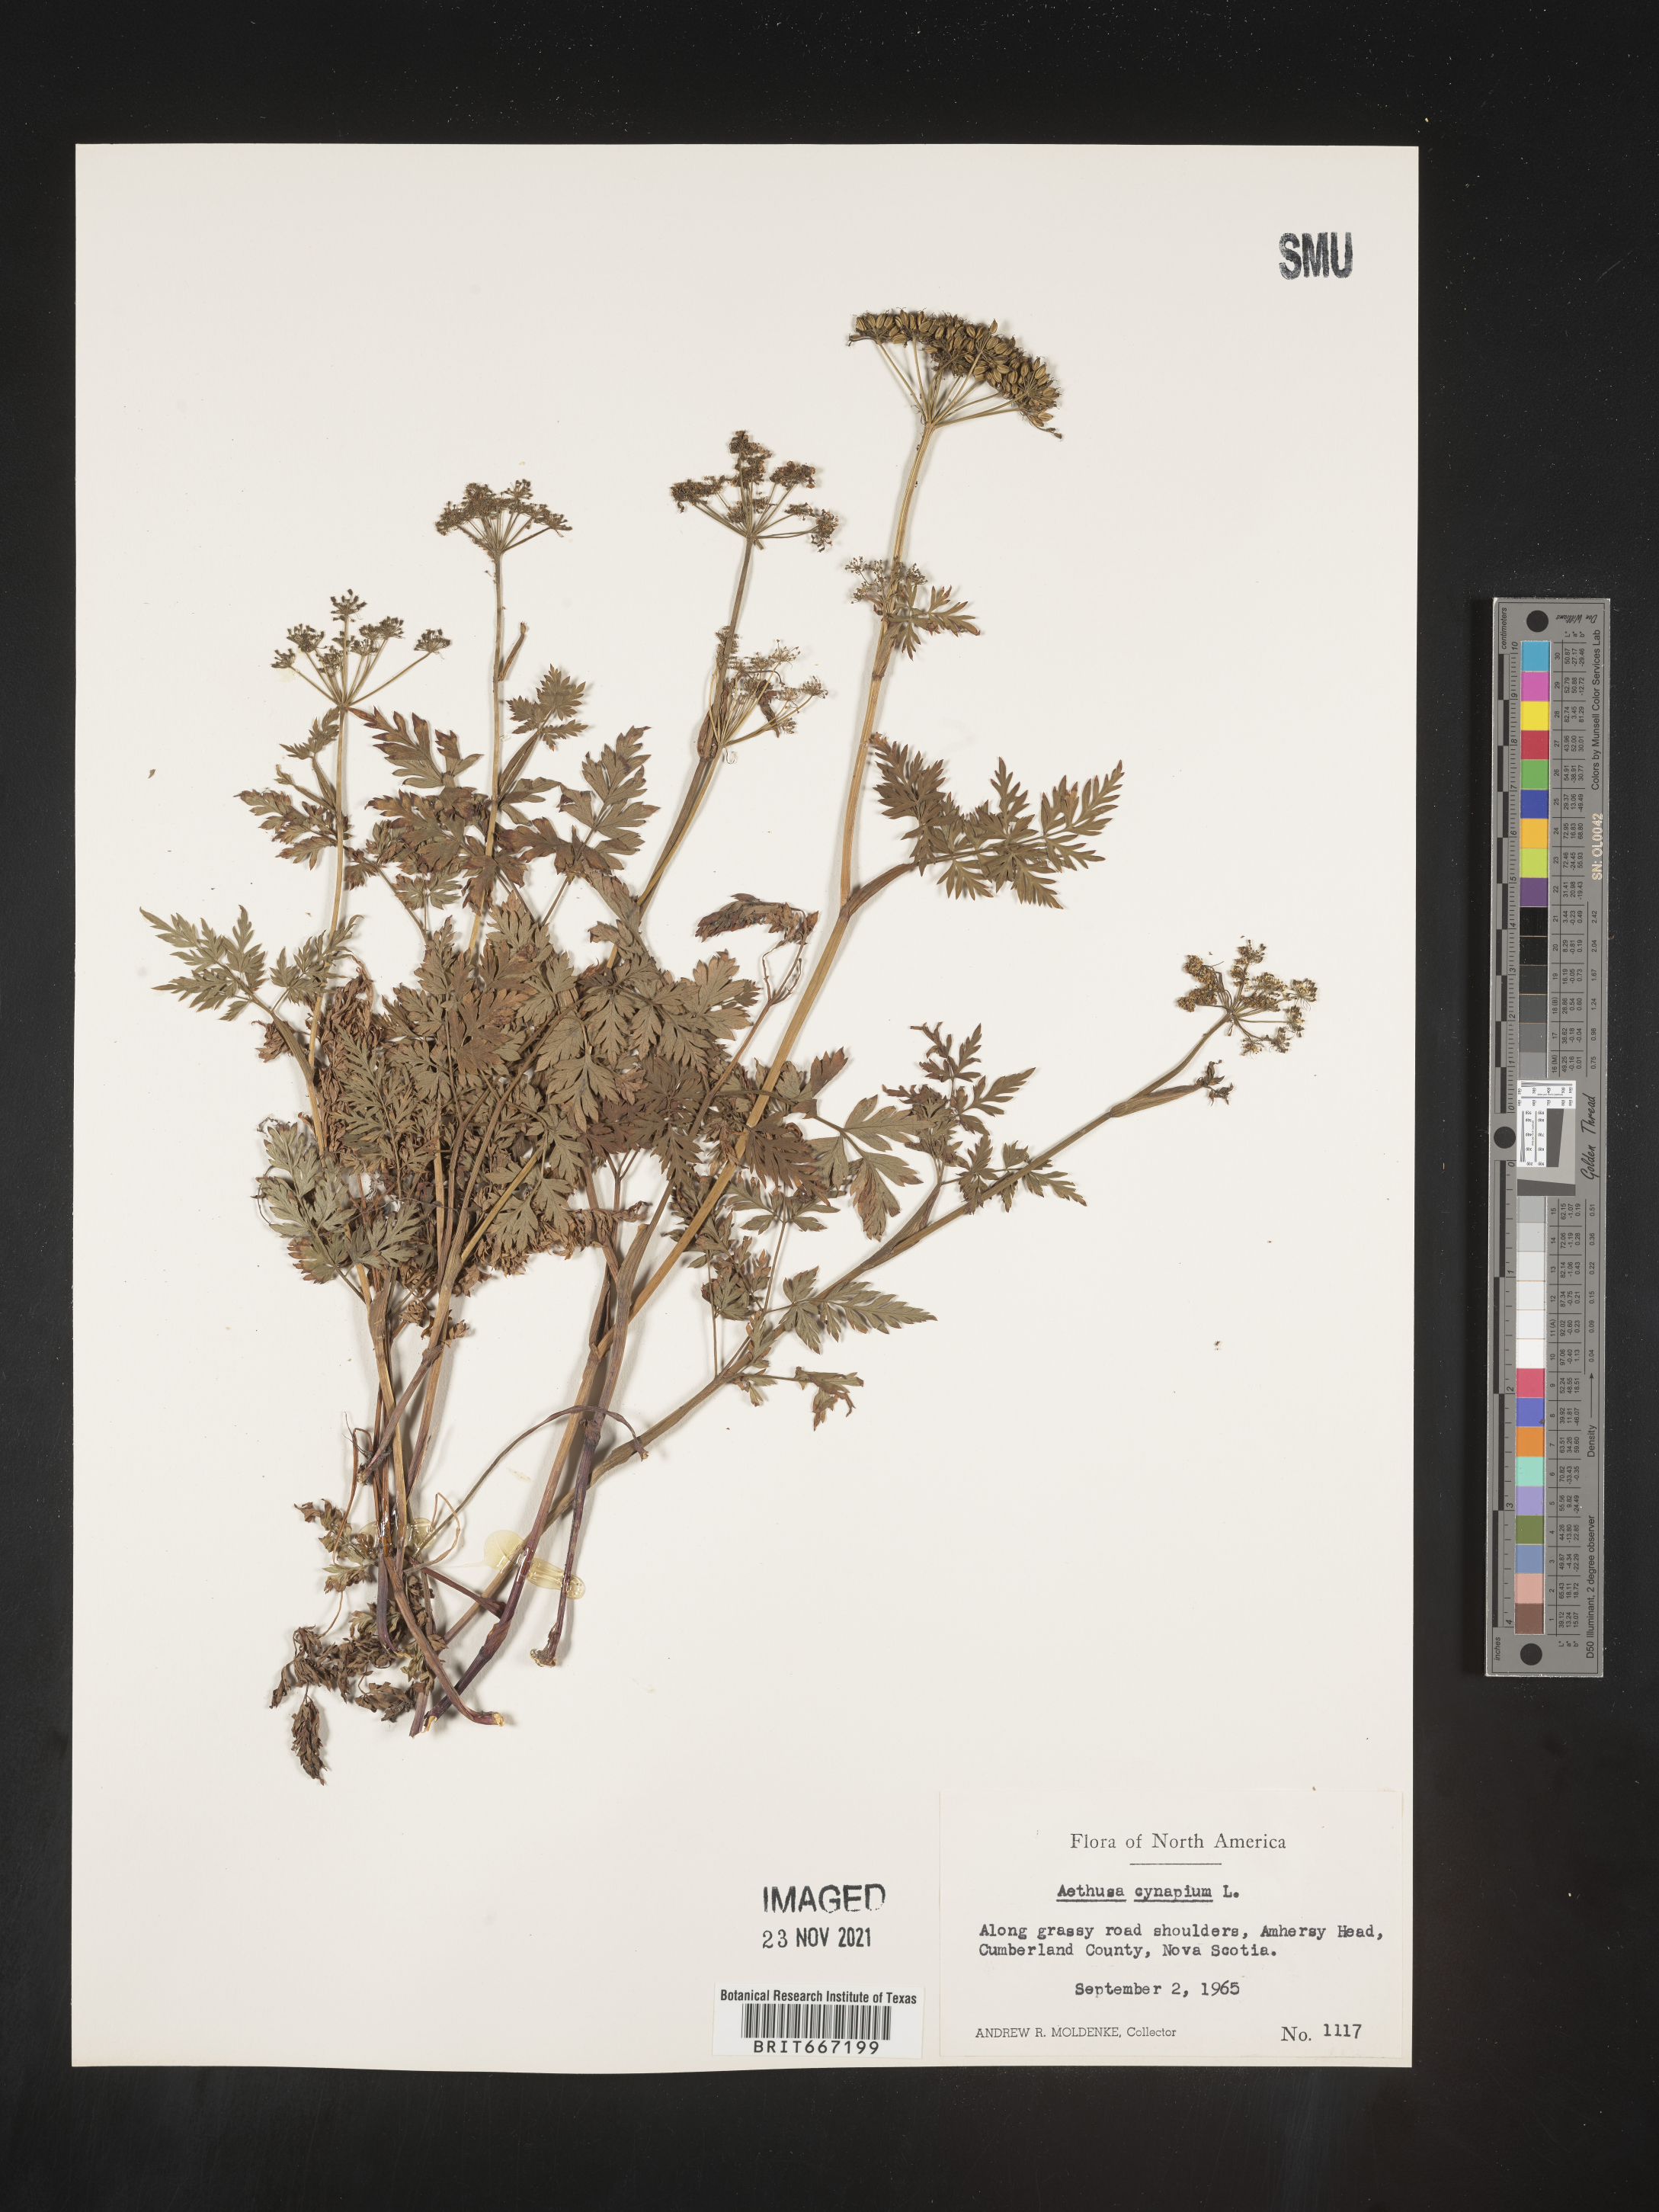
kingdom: Plantae
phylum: Tracheophyta
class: Magnoliopsida
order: Apiales
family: Apiaceae
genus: Aethusa
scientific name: Aethusa
